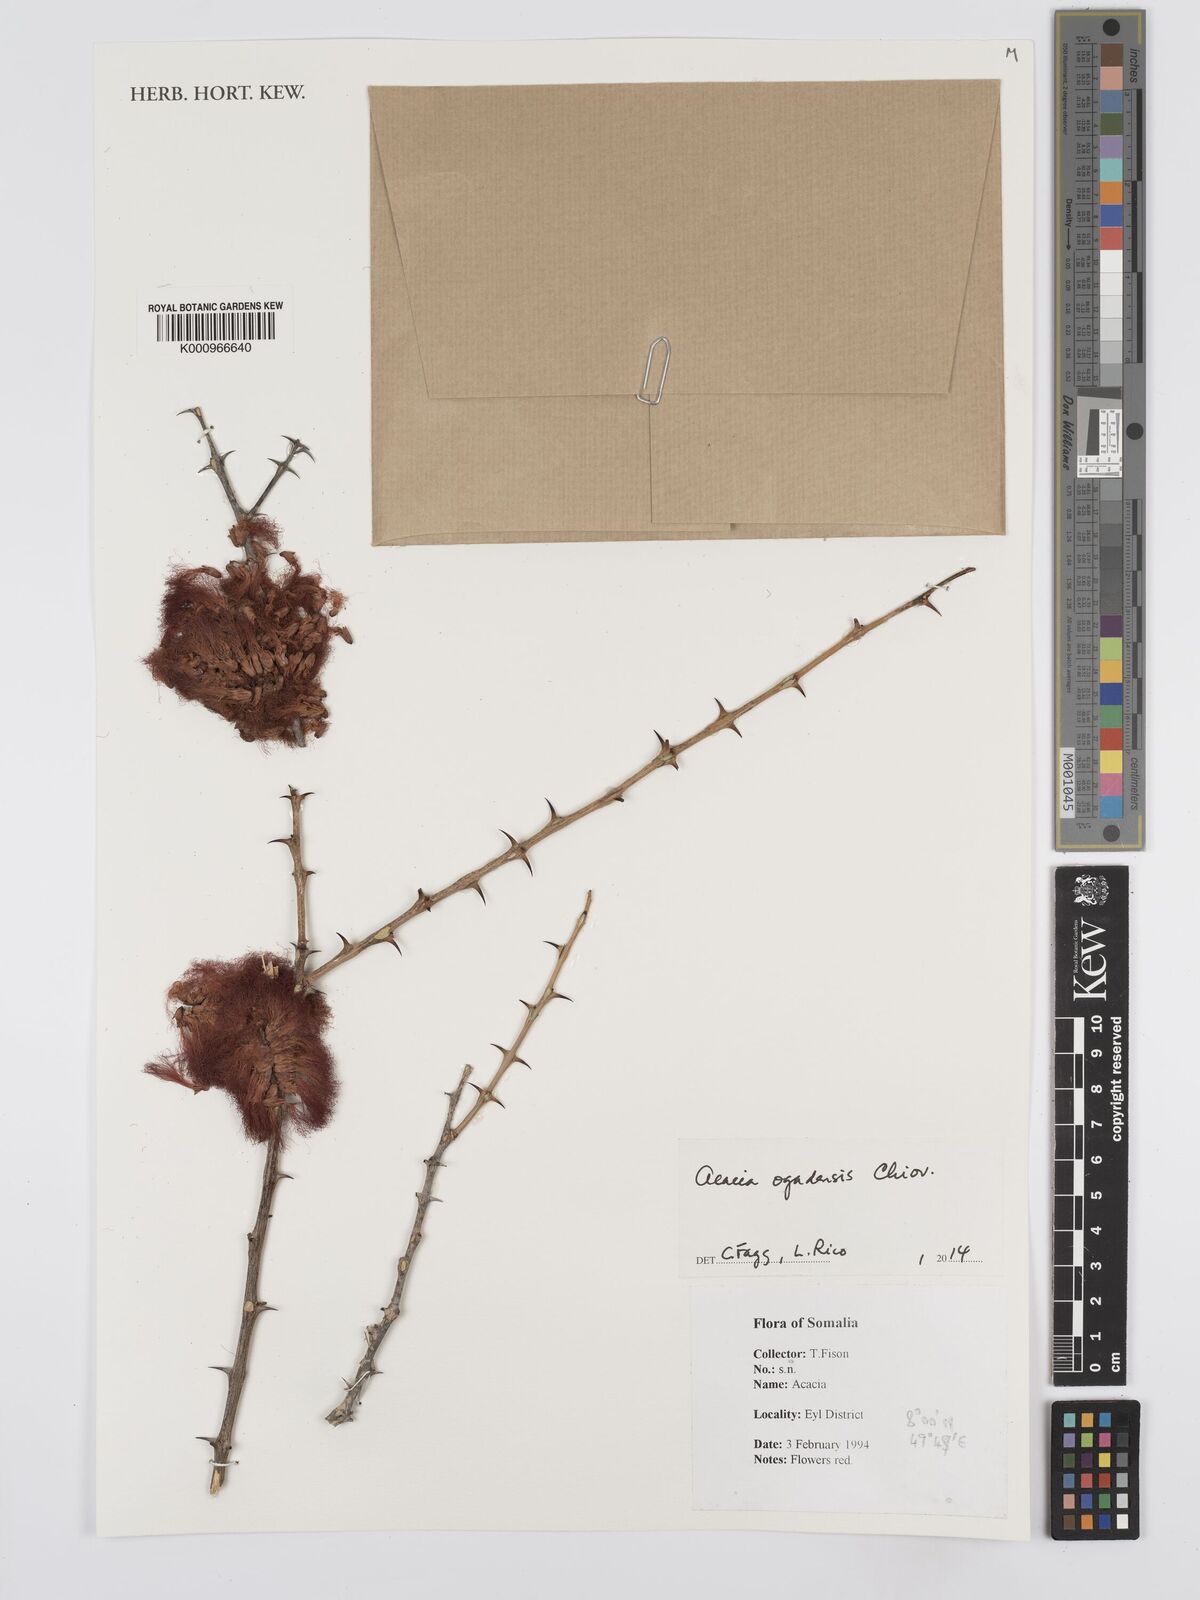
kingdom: Plantae
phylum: Tracheophyta
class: Magnoliopsida
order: Fabales
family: Fabaceae
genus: Senegalia
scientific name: Senegalia ogadensis
